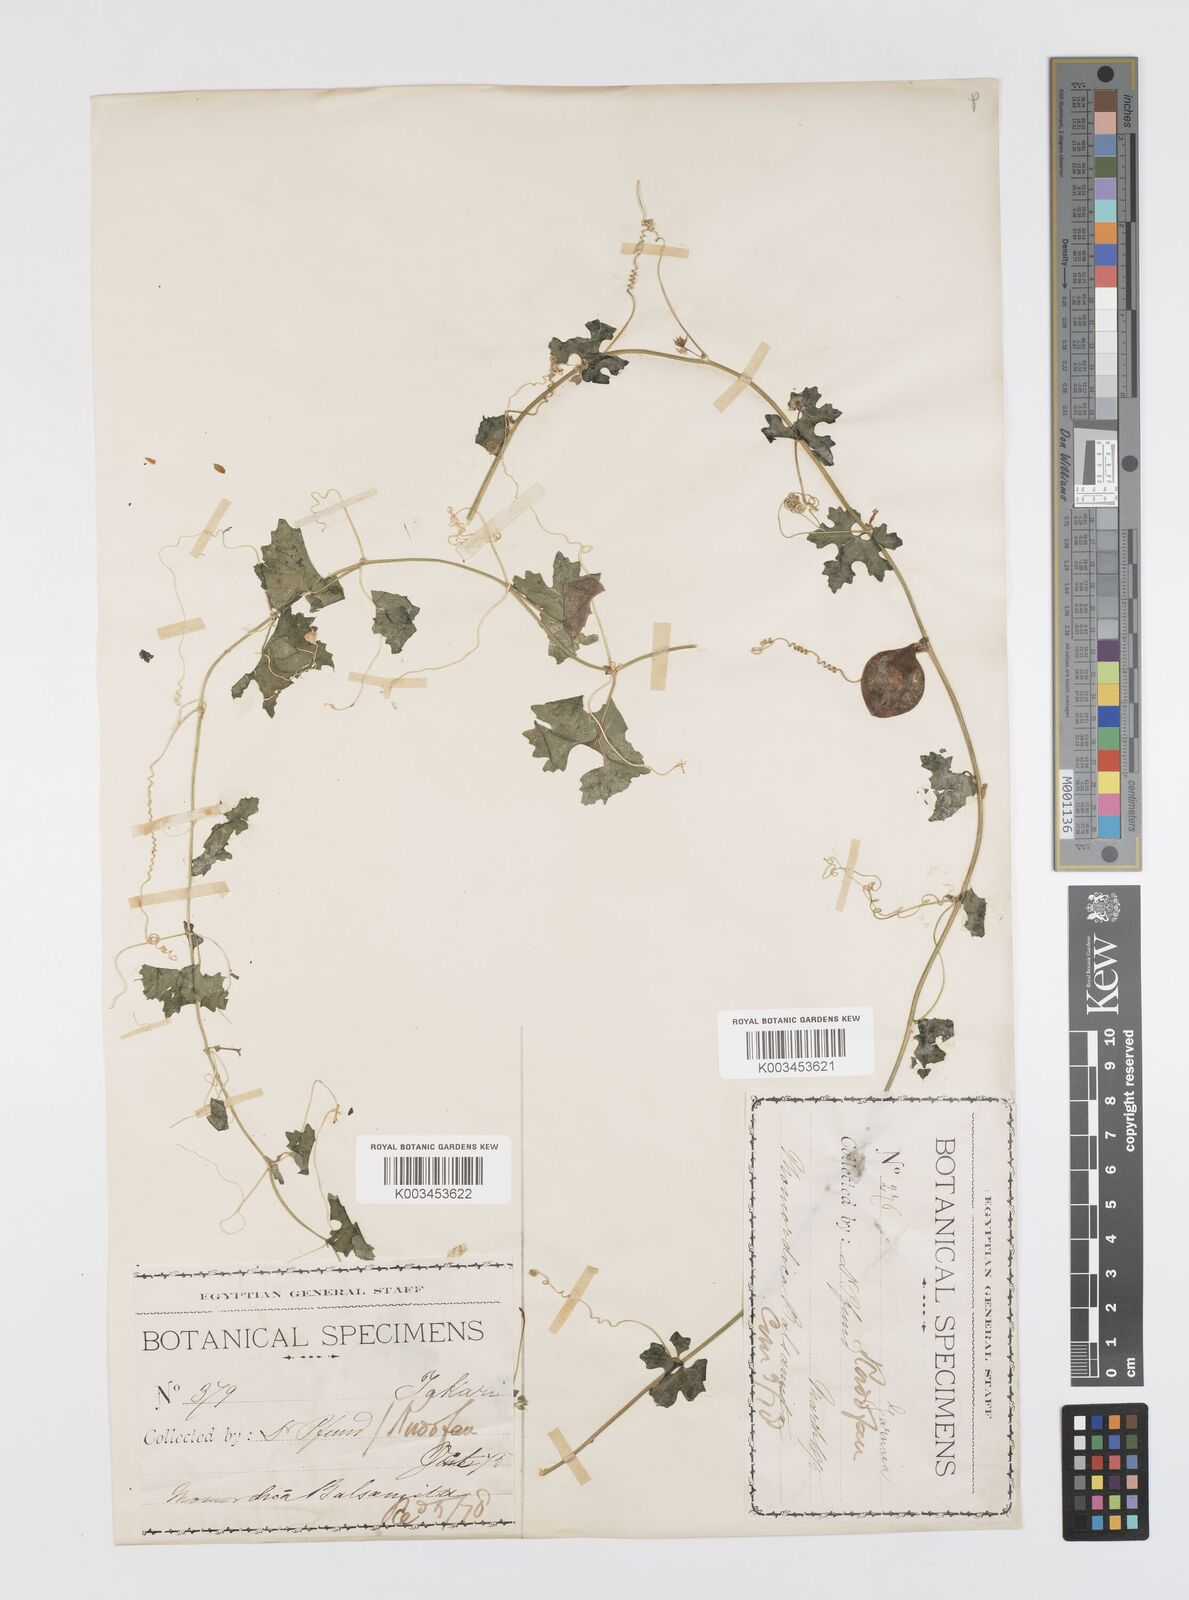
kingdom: Plantae
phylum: Tracheophyta
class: Magnoliopsida
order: Cucurbitales
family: Cucurbitaceae
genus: Momordica
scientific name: Momordica balsamina
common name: Southern balsampear
